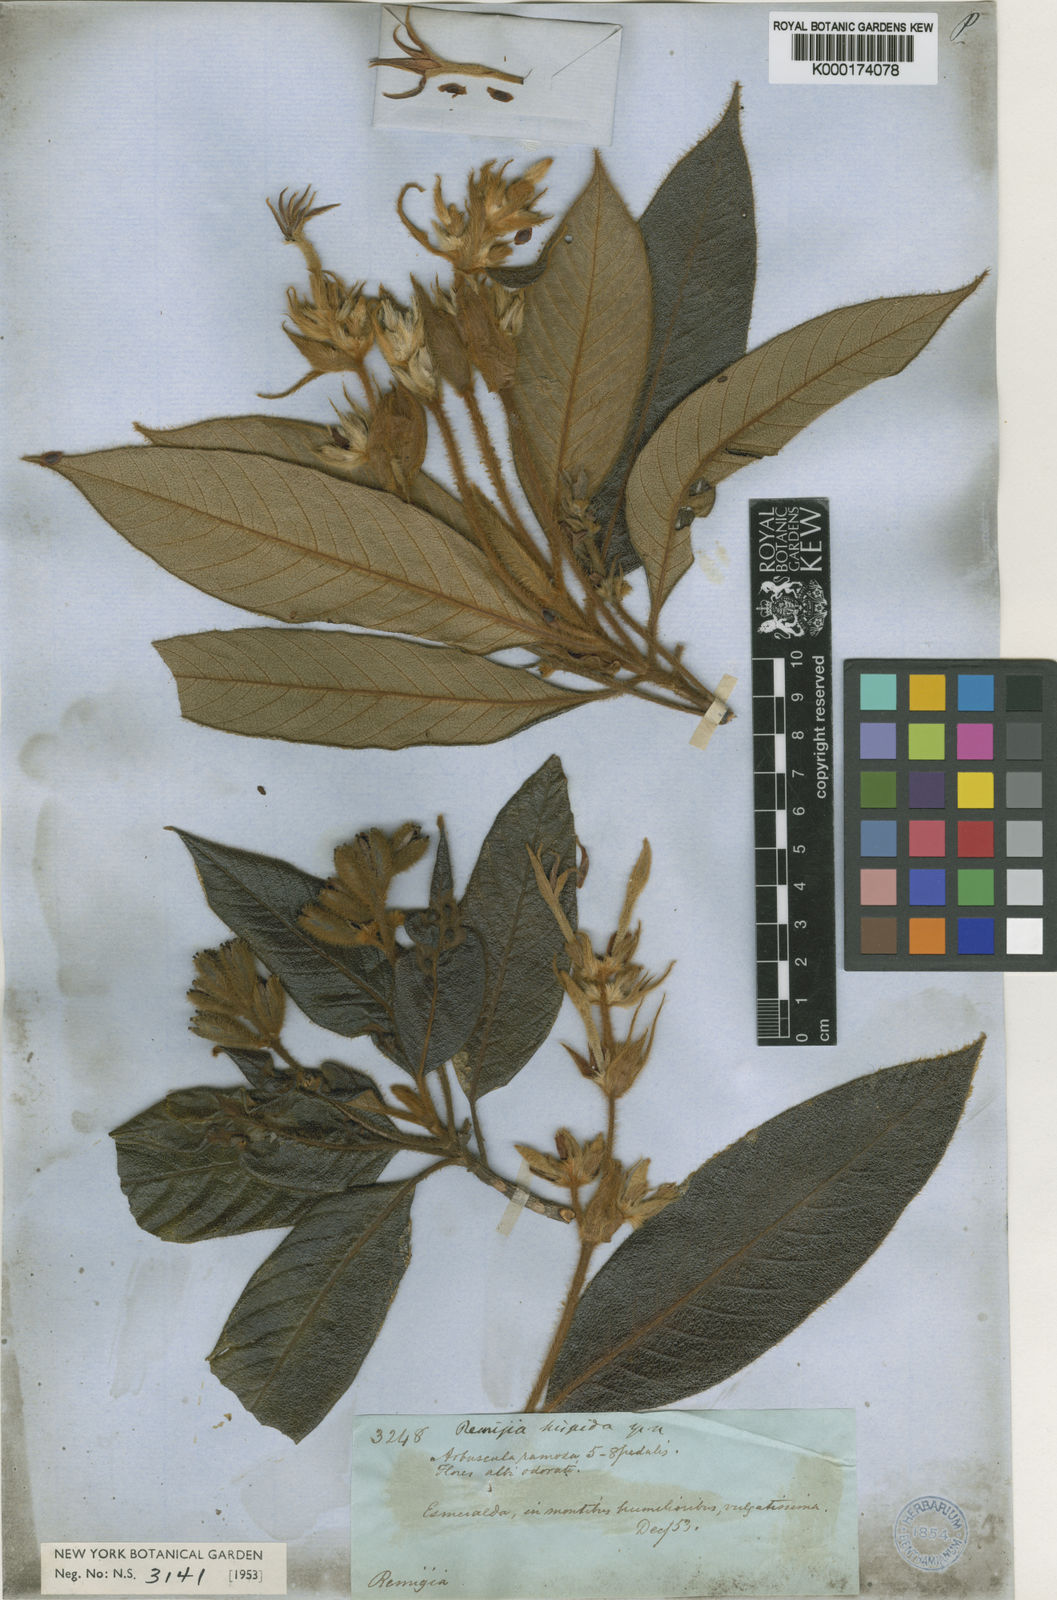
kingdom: Plantae
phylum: Tracheophyta
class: Magnoliopsida
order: Gentianales
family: Rubiaceae
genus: Remijia
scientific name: Remijia hispida
